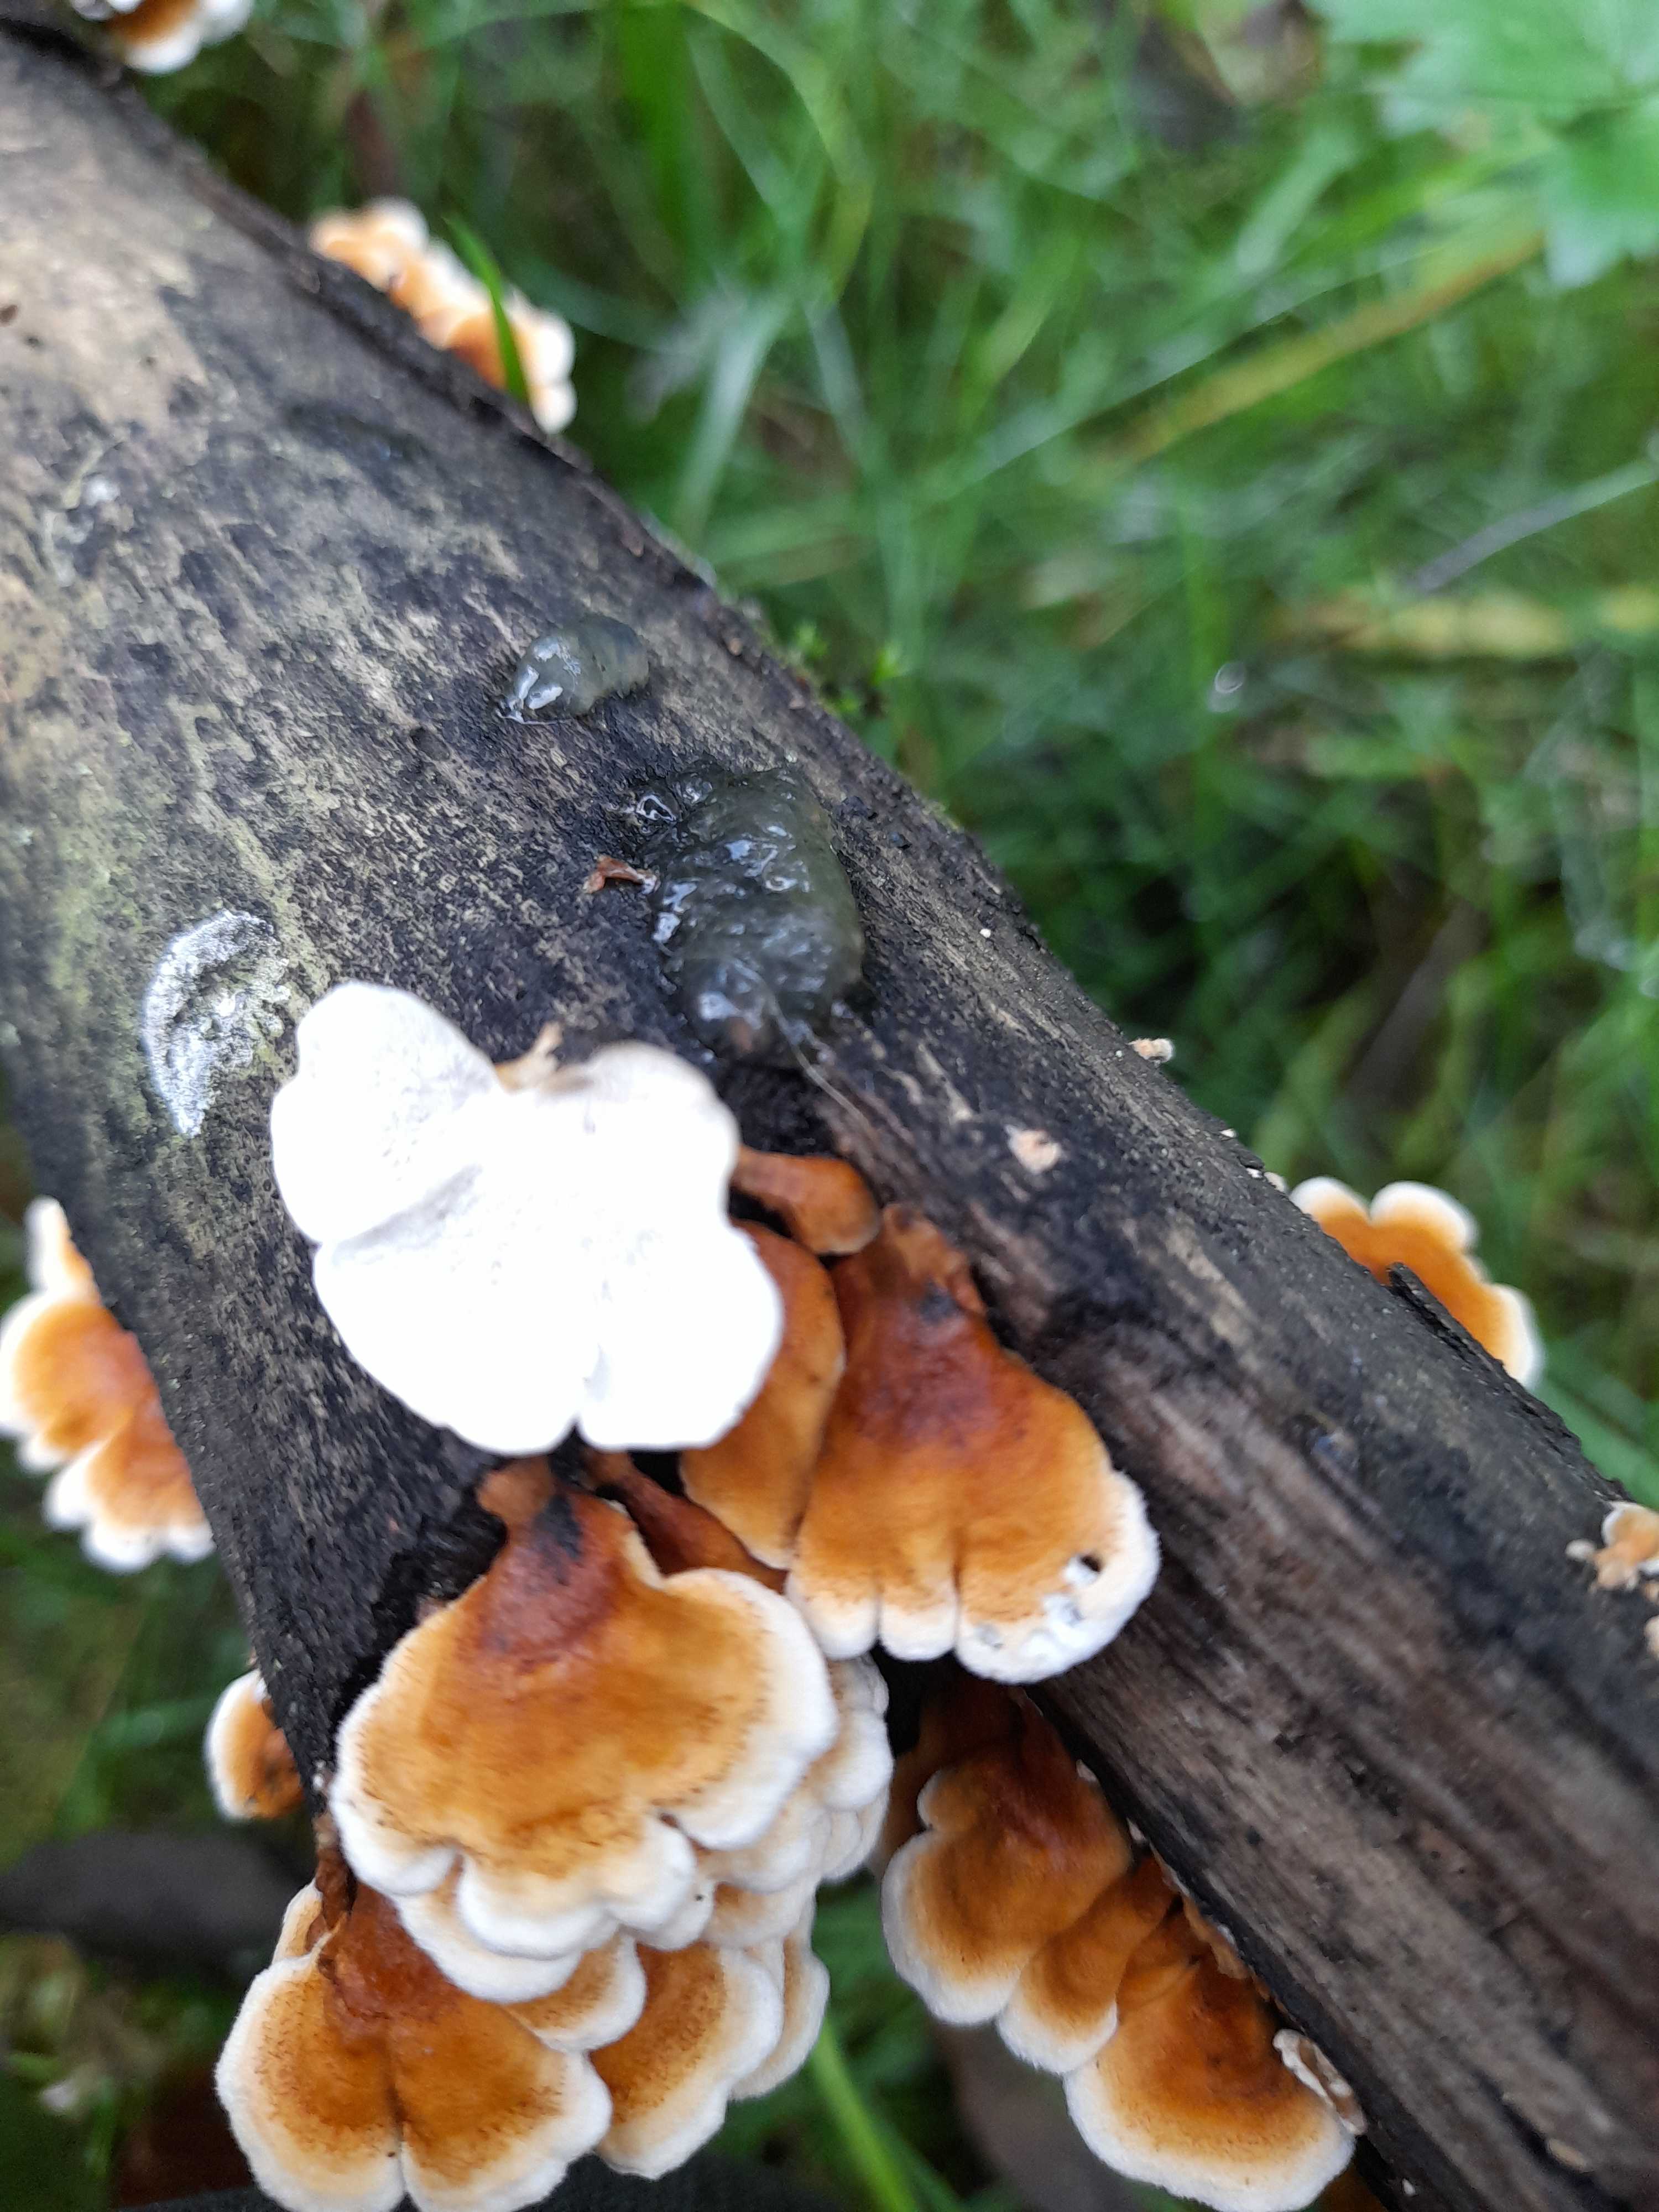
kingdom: Fungi
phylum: Basidiomycota
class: Agaricomycetes
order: Amylocorticiales
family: Amylocorticiaceae
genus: Plicaturopsis
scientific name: Plicaturopsis crispa
